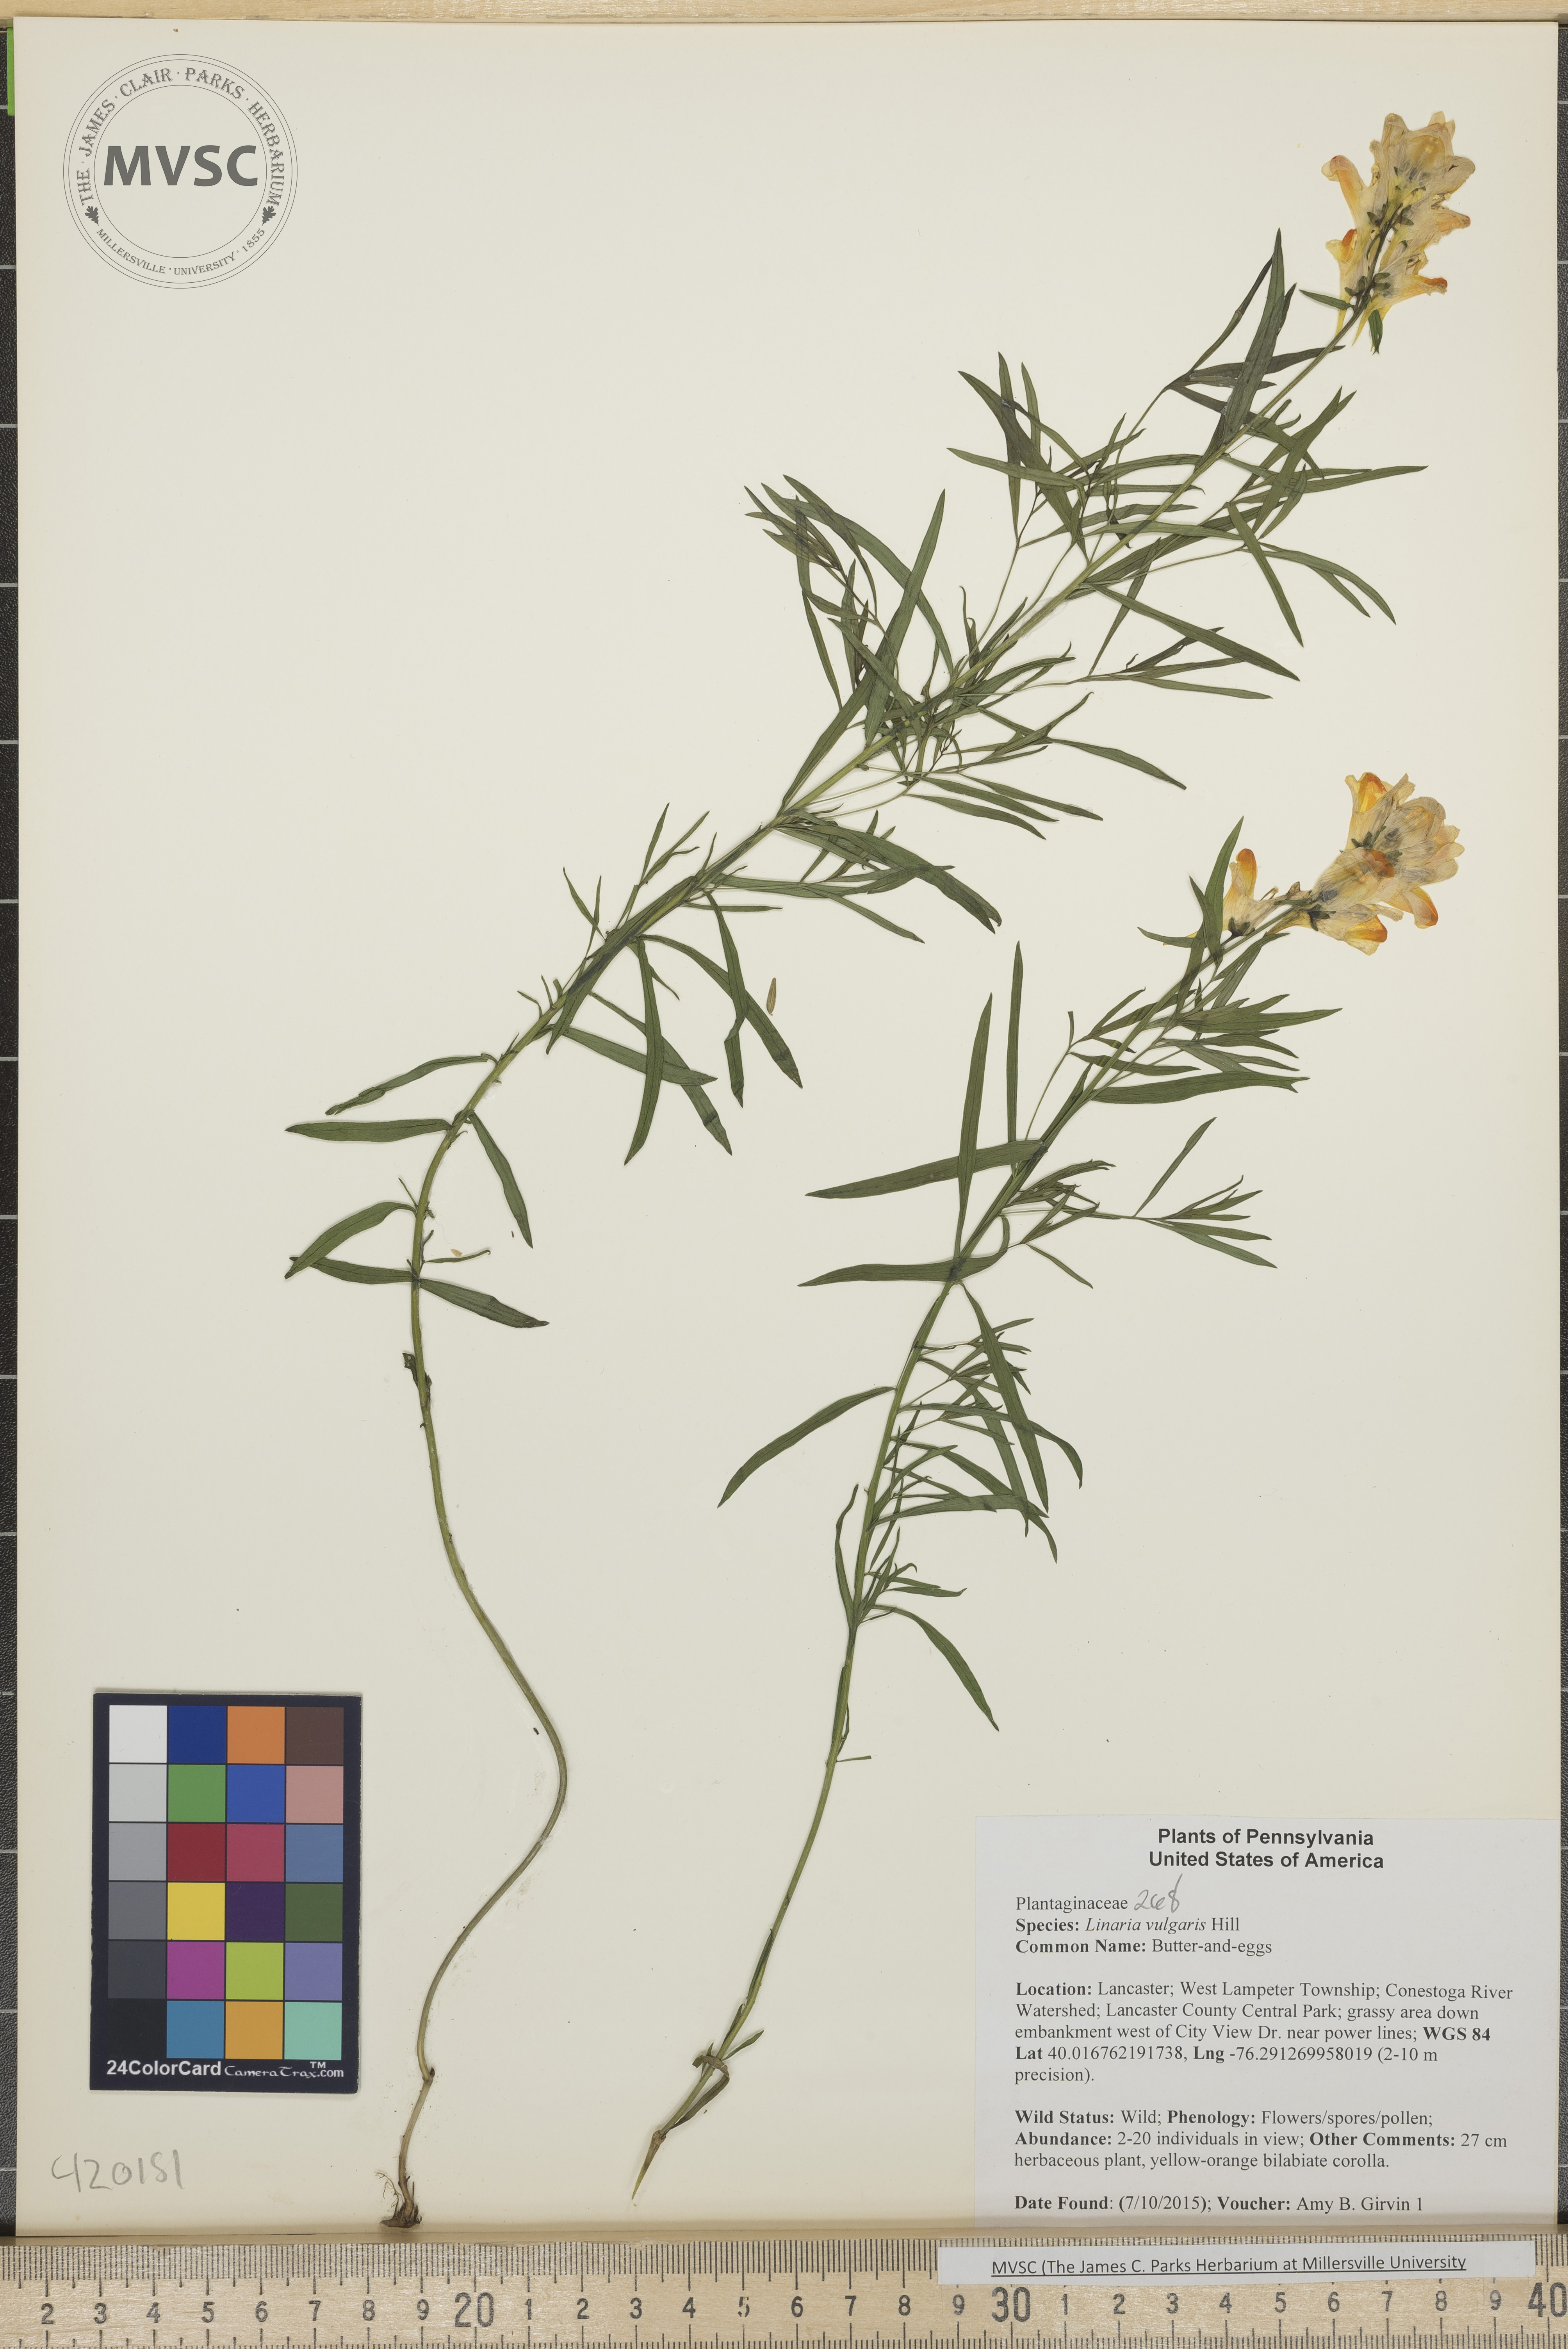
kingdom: Plantae
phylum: Tracheophyta
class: Magnoliopsida
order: Lamiales
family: Plantaginaceae
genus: Linaria
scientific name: Linaria vulgaris
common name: Butter-and-eggs
